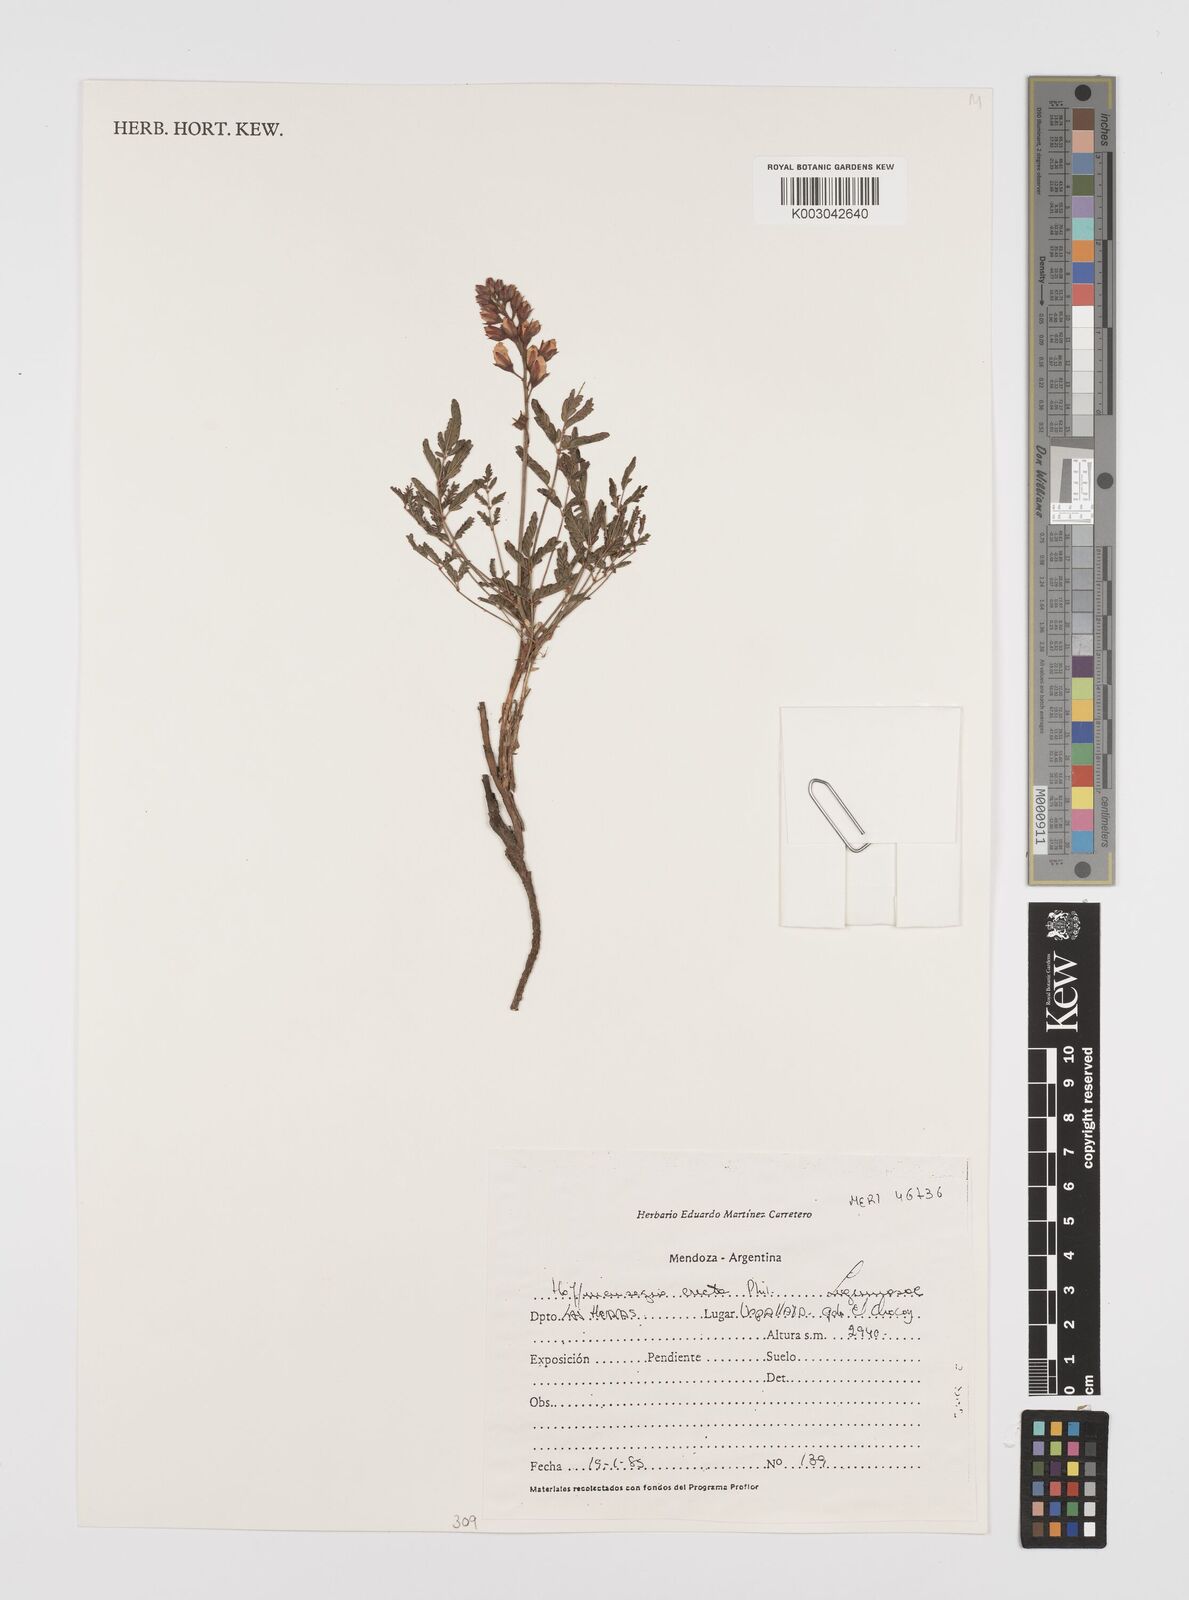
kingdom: Plantae
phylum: Tracheophyta
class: Magnoliopsida
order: Fabales
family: Fabaceae
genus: Hoffmannseggia
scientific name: Hoffmannseggia erecta
